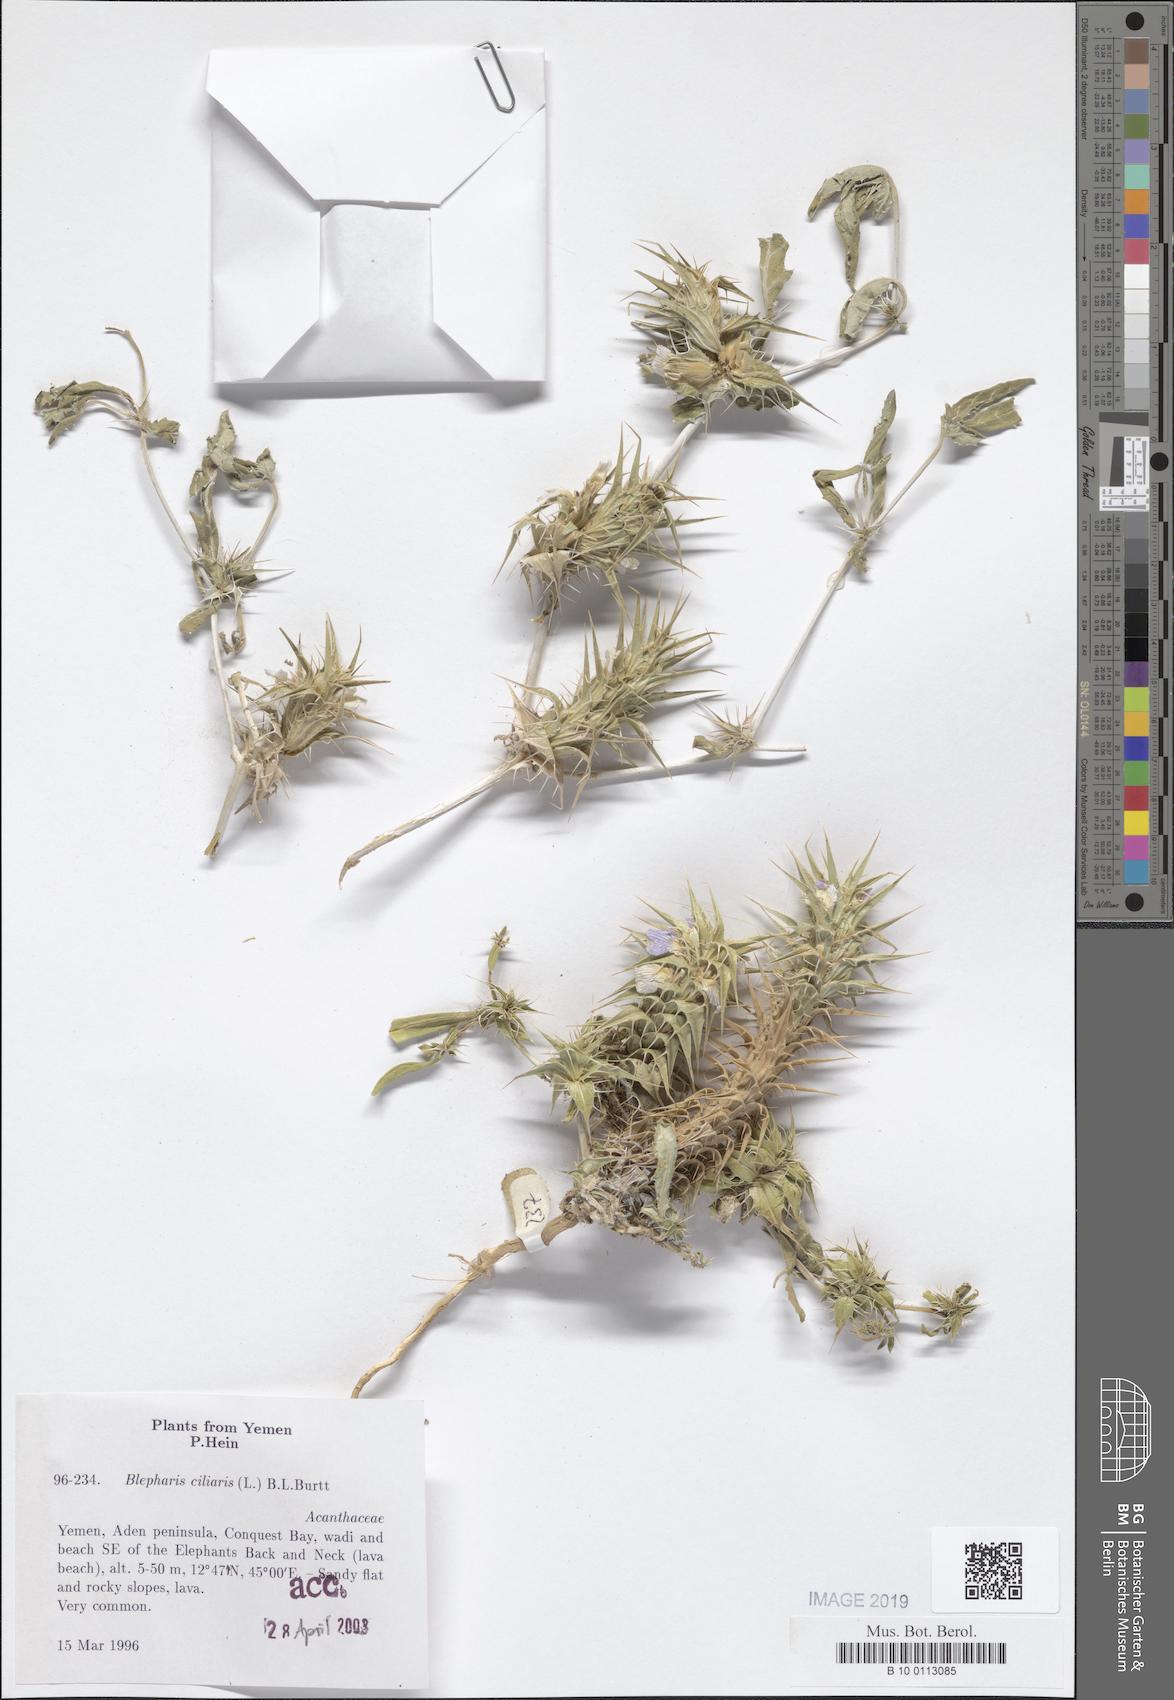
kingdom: Plantae
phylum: Tracheophyta
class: Magnoliopsida
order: Lamiales
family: Acanthaceae
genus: Blepharis
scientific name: Blepharis ciliaris
